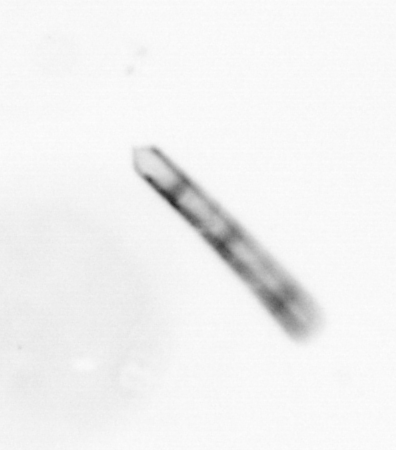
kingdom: Chromista
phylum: Ochrophyta
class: Bacillariophyceae
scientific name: Bacillariophyceae
